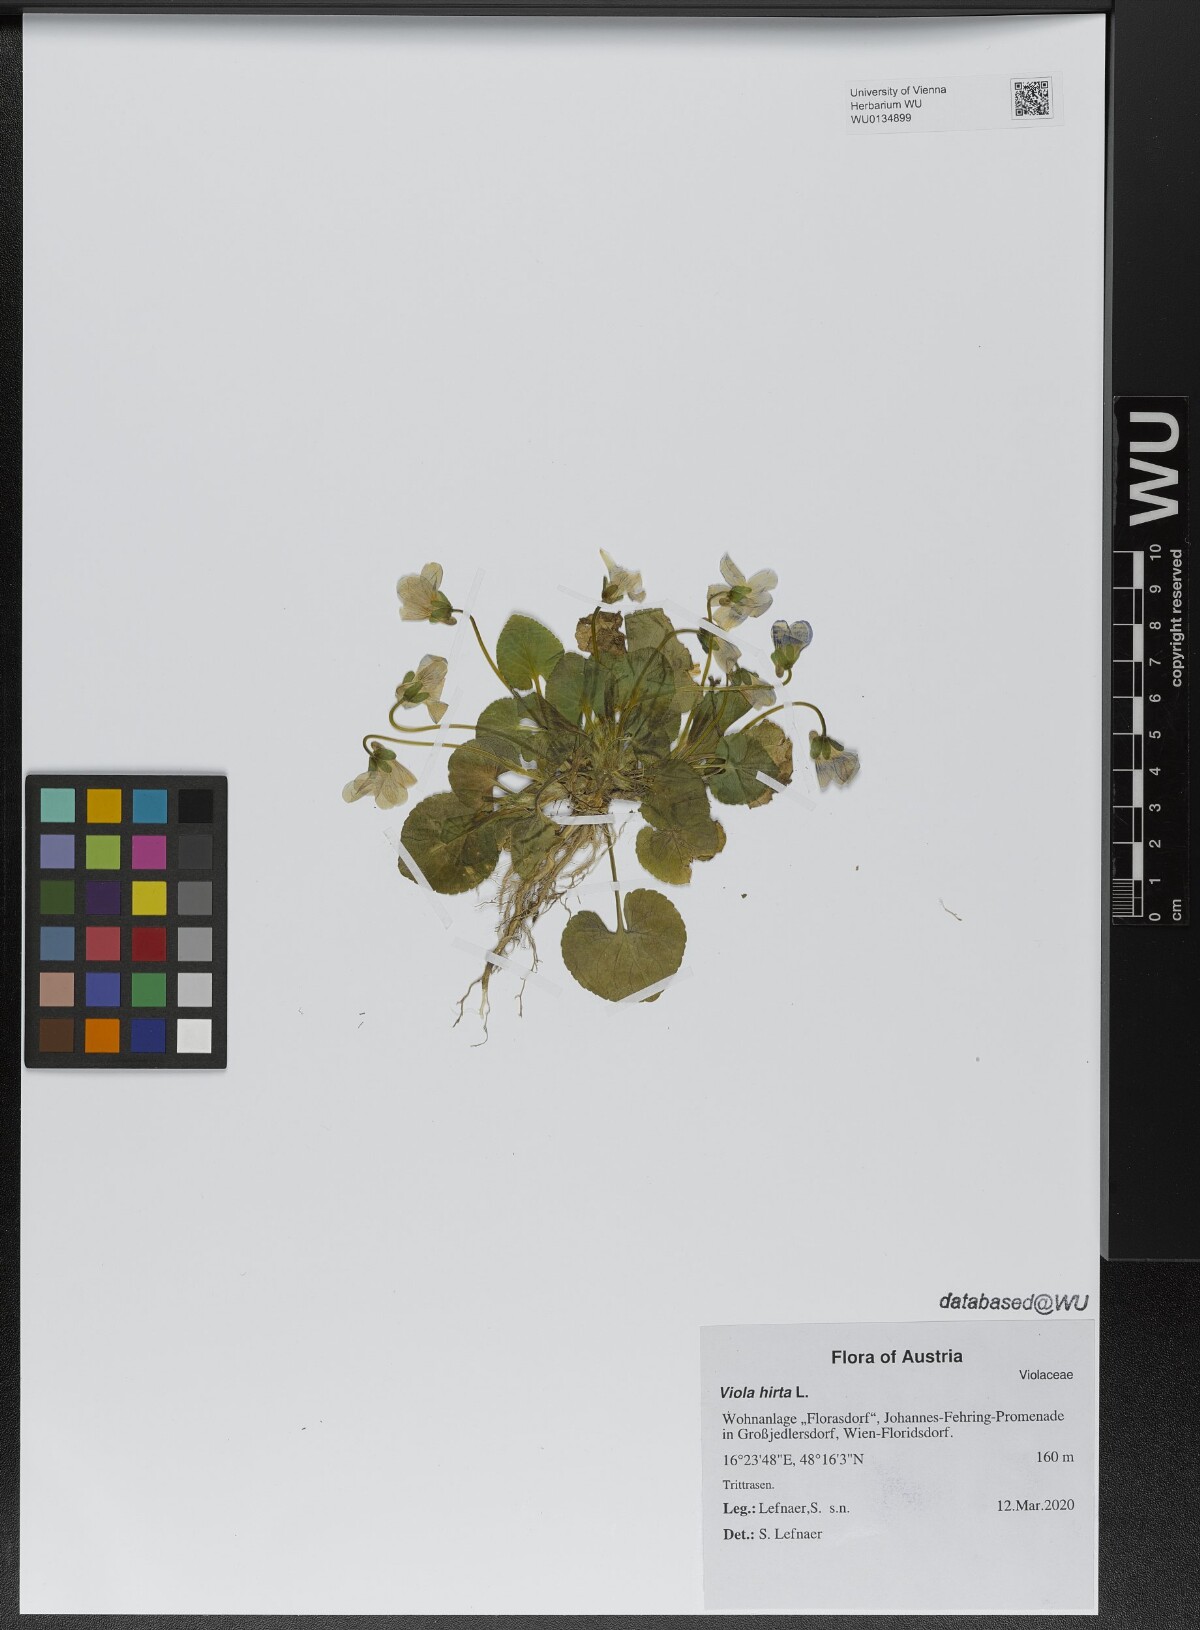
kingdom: Plantae
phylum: Tracheophyta
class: Magnoliopsida
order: Malpighiales
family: Violaceae
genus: Viola
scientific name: Viola hirta
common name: Hairy violet
